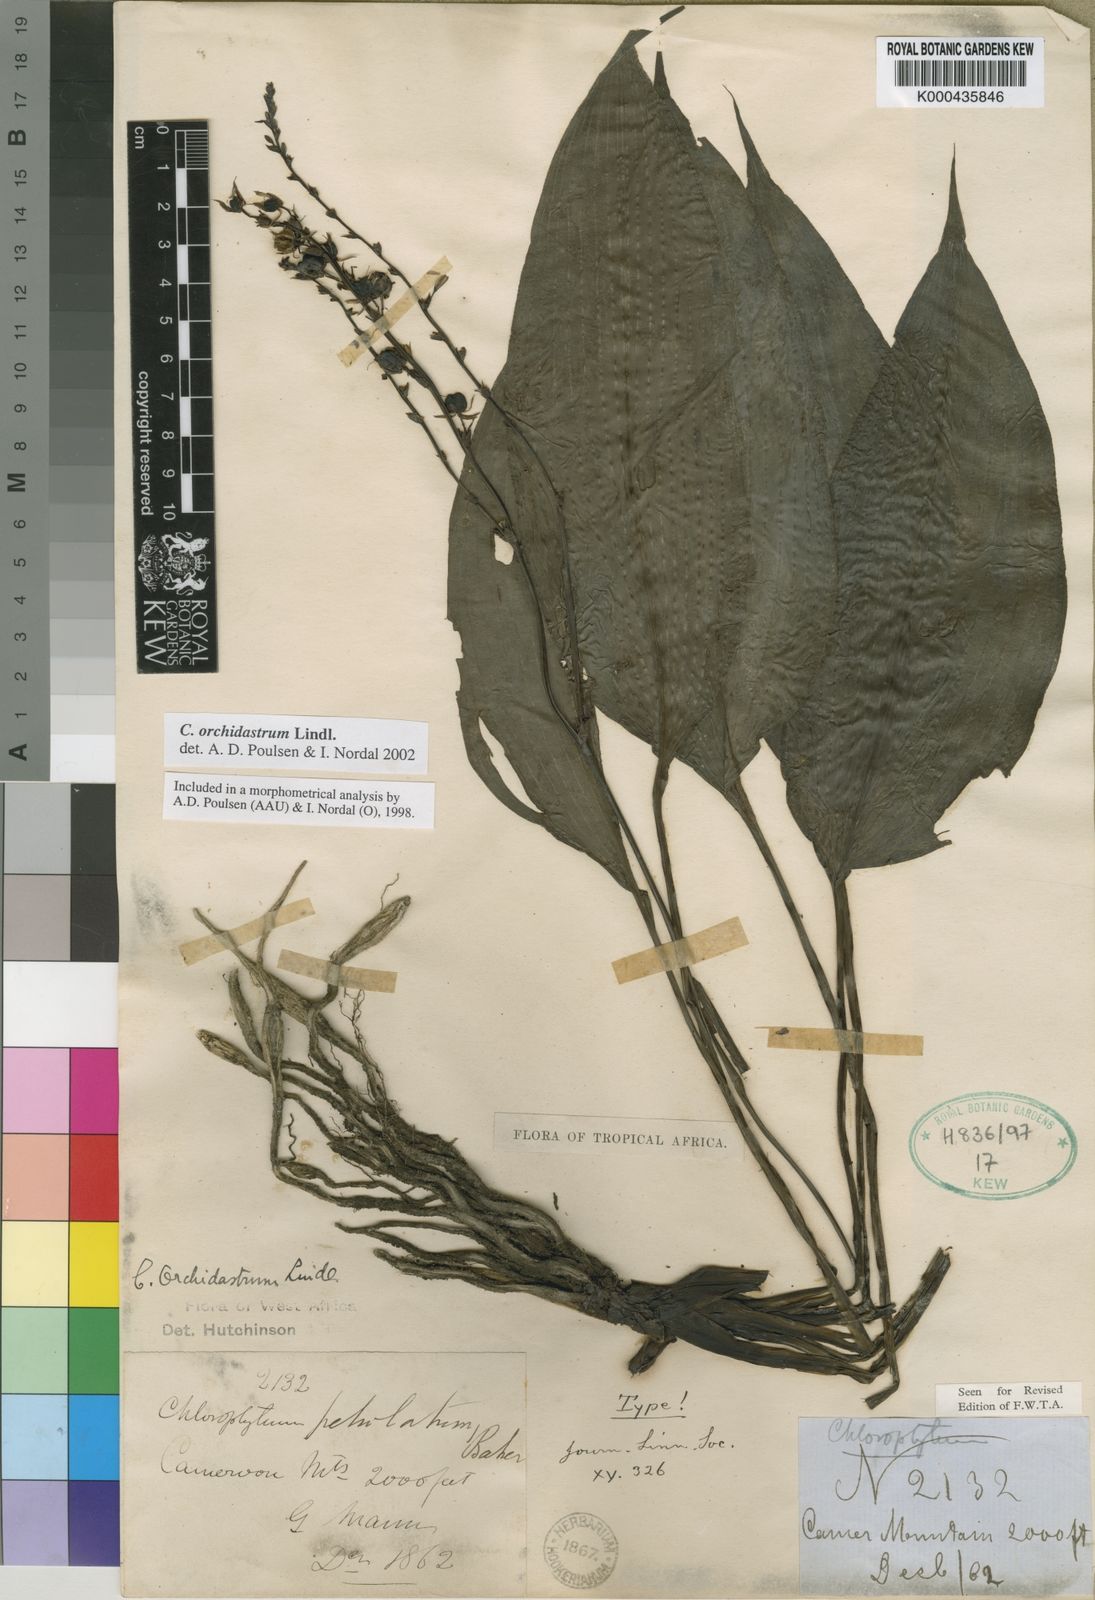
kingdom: Plantae
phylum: Tracheophyta
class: Liliopsida
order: Asparagales
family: Asparagaceae
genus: Chlorophytum
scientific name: Chlorophytum orchidastrum
